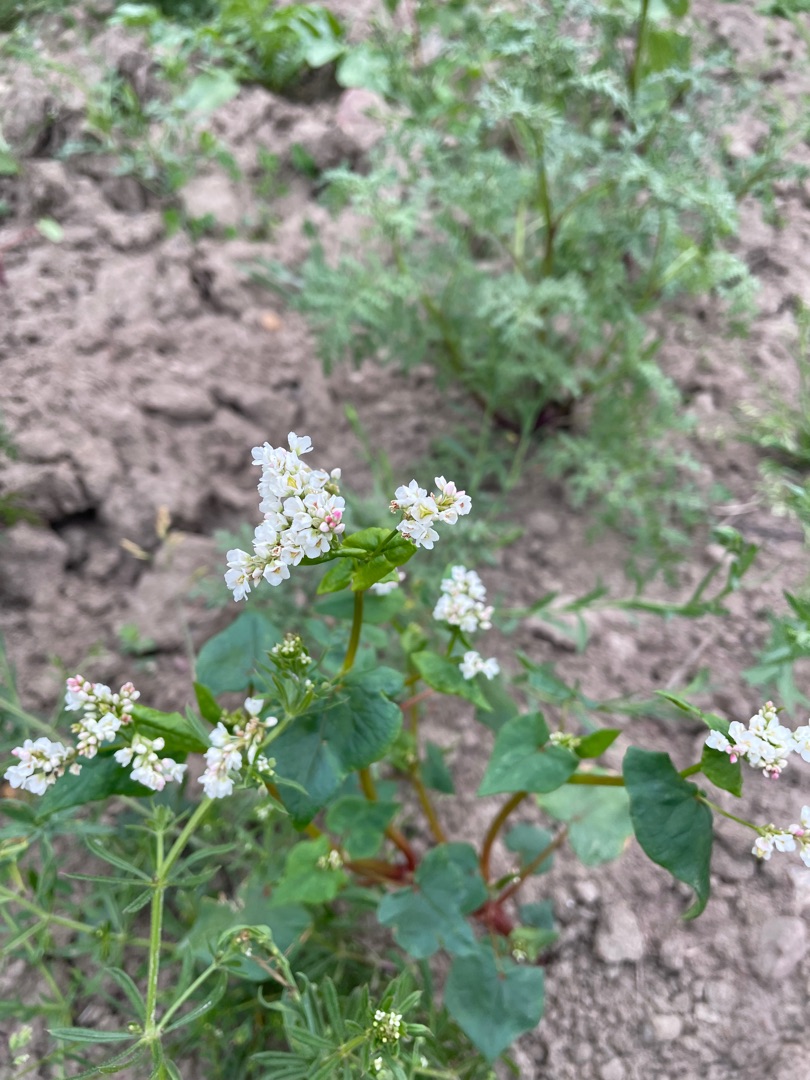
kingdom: Plantae
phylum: Tracheophyta
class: Magnoliopsida
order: Caryophyllales
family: Polygonaceae
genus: Fagopyrum
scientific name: Fagopyrum esculentum
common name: Almindelig boghvede
